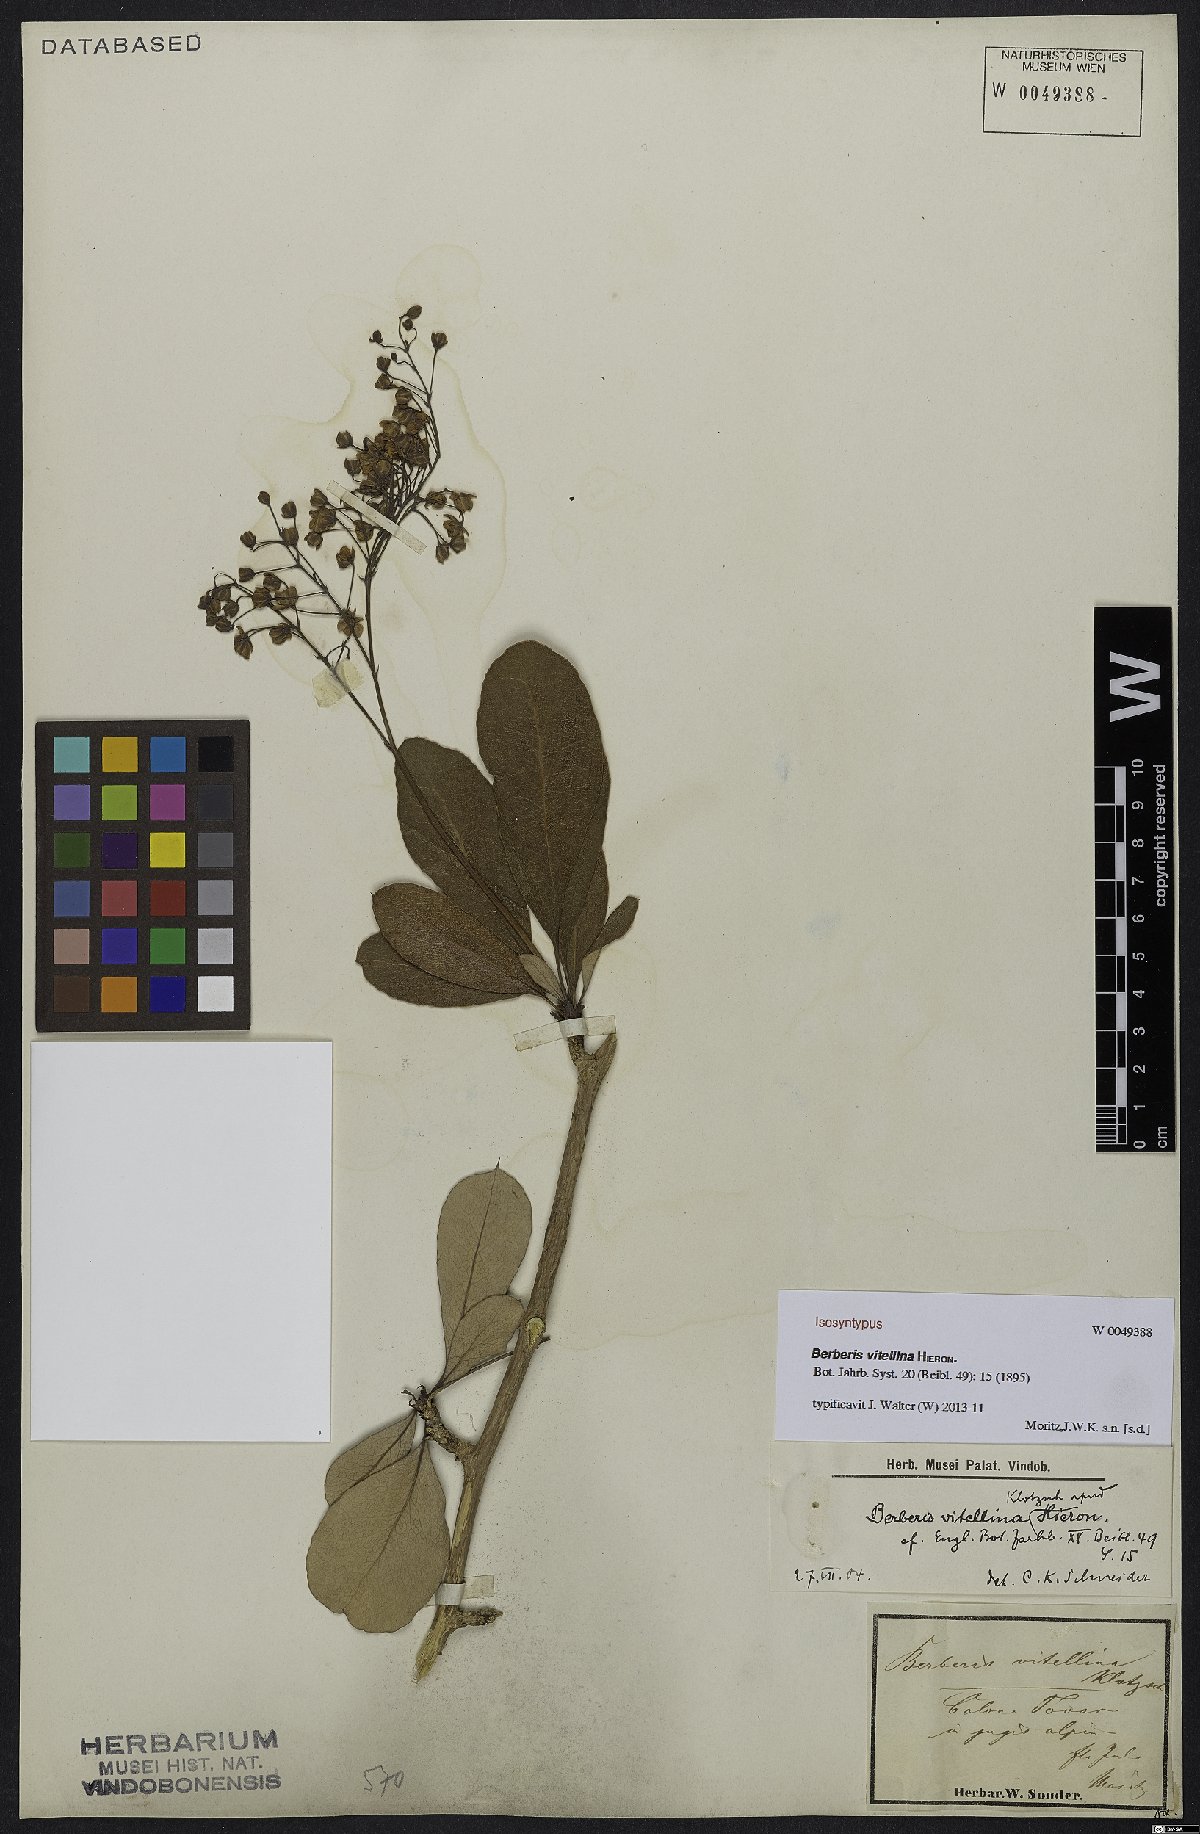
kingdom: Plantae
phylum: Tracheophyta
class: Magnoliopsida
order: Ranunculales
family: Berberidaceae
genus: Berberis
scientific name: Berberis vitellina
